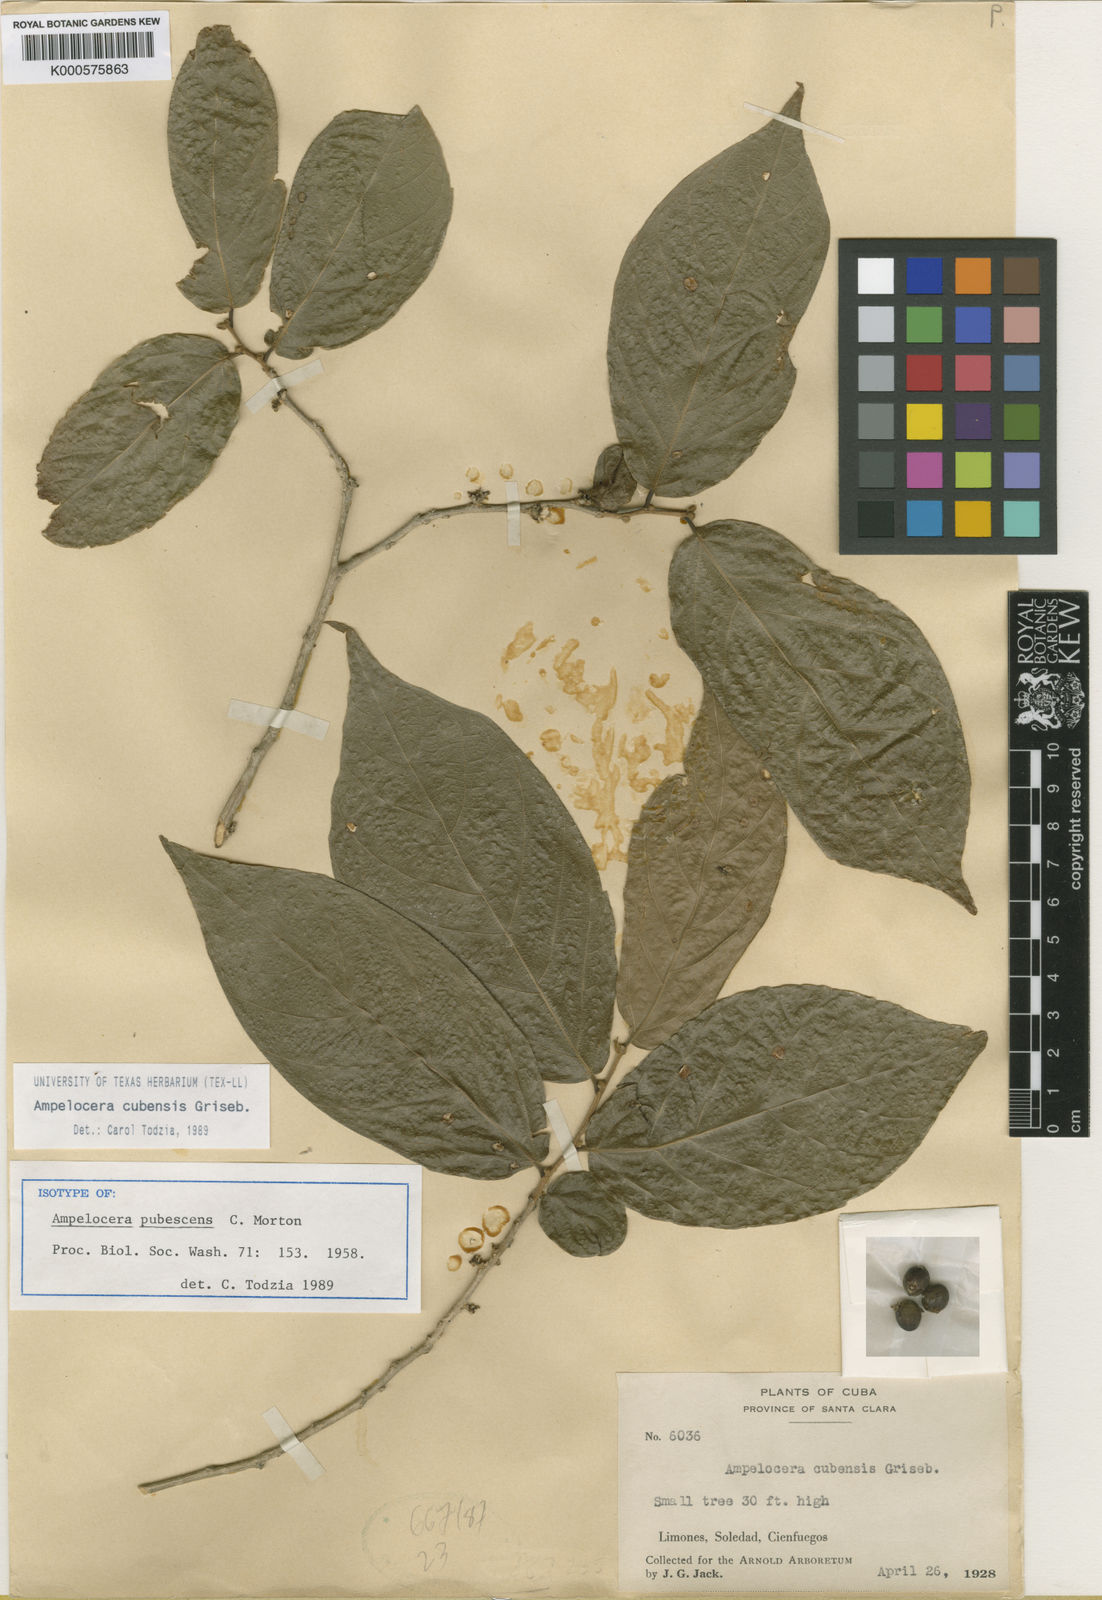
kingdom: Plantae
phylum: Tracheophyta
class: Magnoliopsida
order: Rosales
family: Cannabaceae
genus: Ampelocera
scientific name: Ampelocera cubensis
